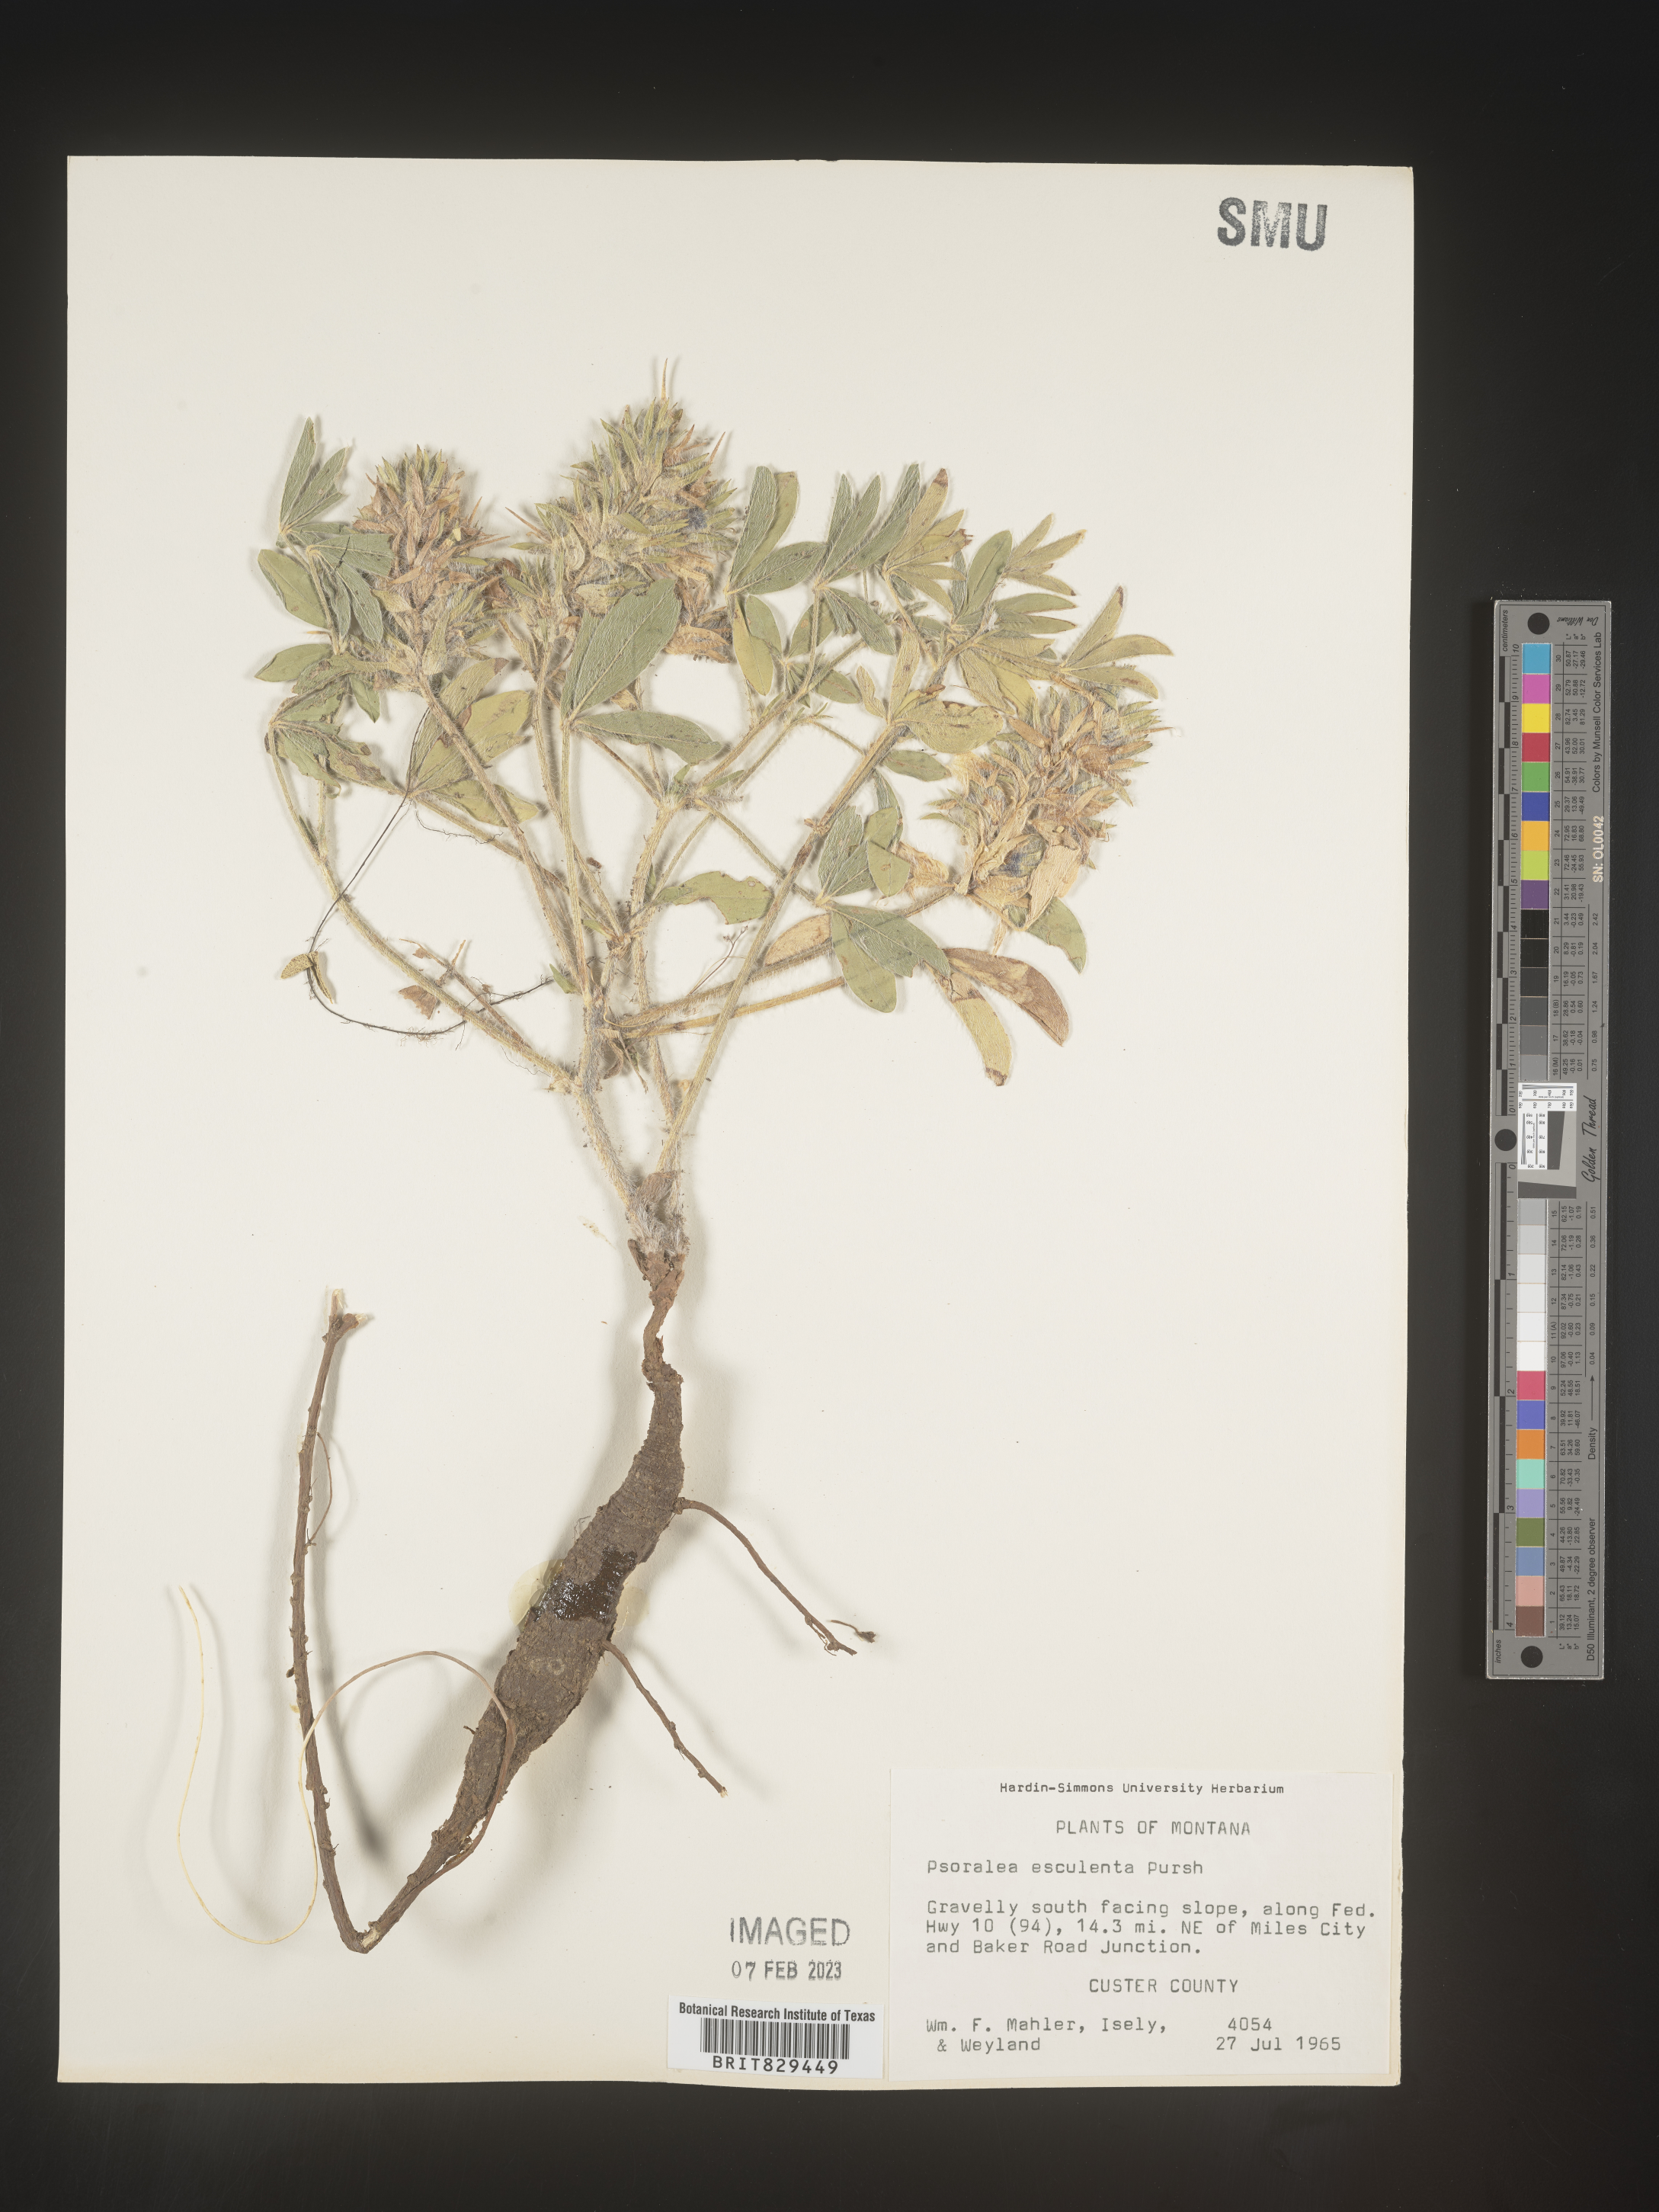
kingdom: Plantae
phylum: Tracheophyta
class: Magnoliopsida
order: Fabales
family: Fabaceae
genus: Psoralea
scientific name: Psoralea
